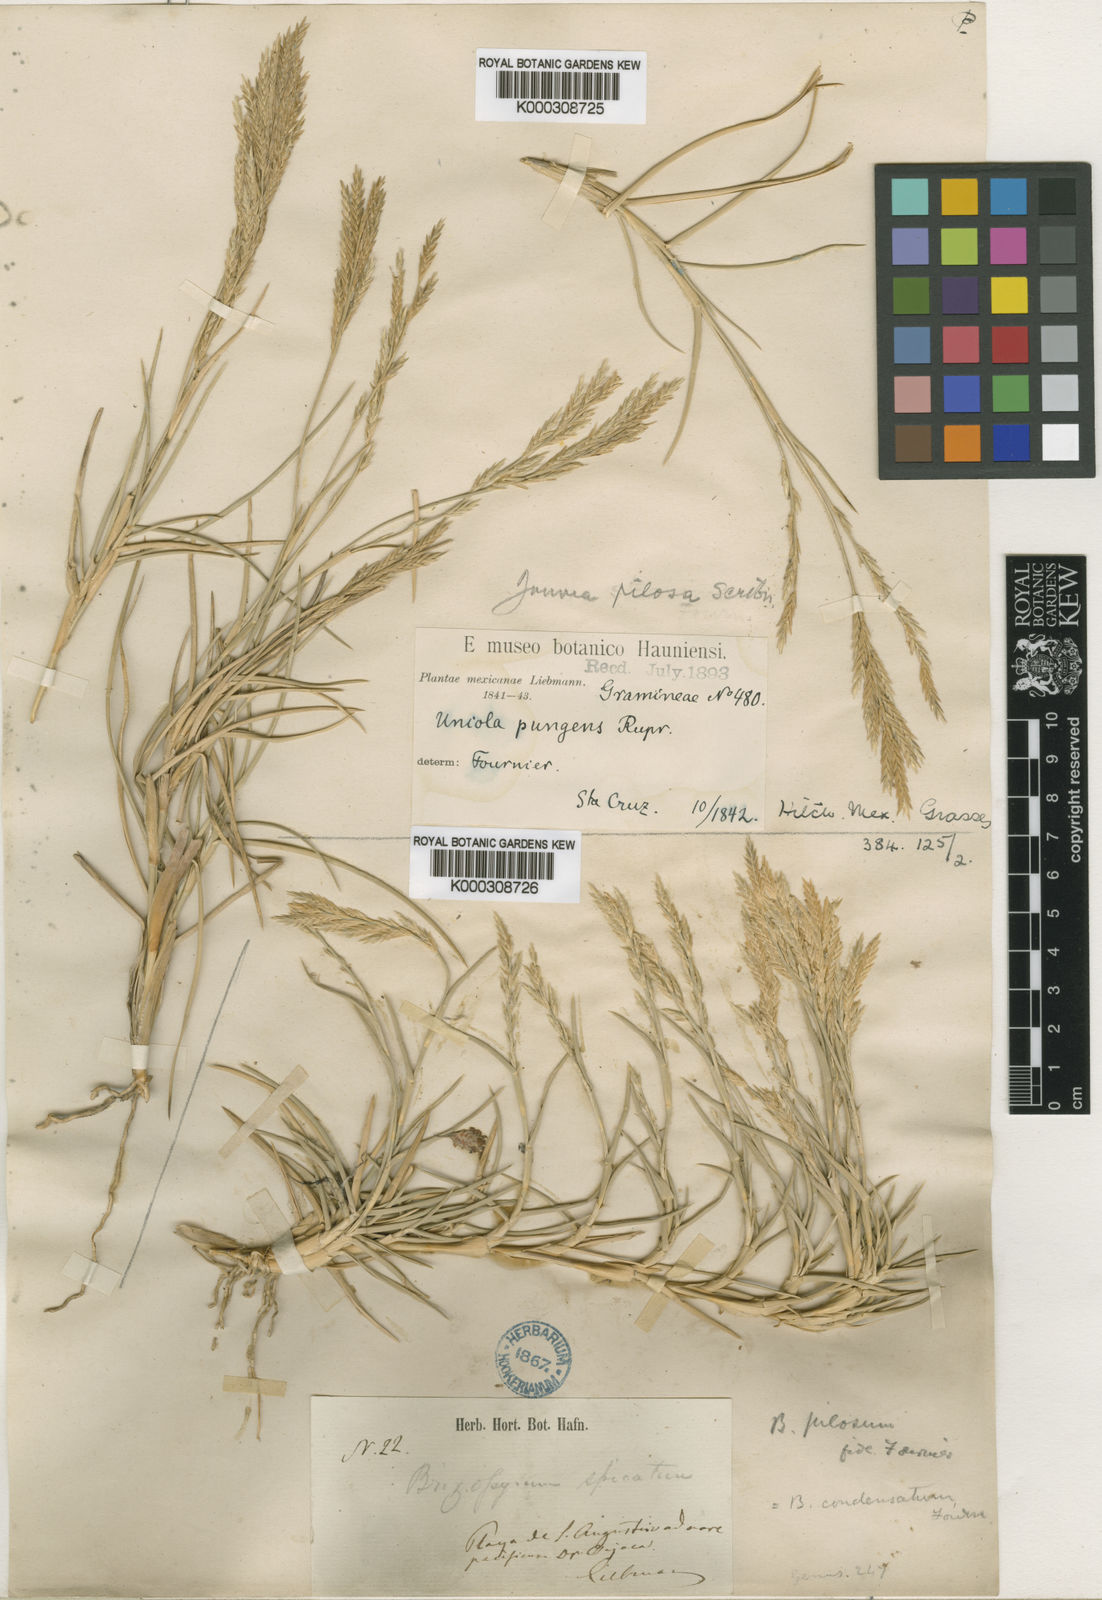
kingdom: Plantae
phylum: Tracheophyta
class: Liliopsida
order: Poales
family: Poaceae
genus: Jouvea
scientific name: Jouvea pilosa
